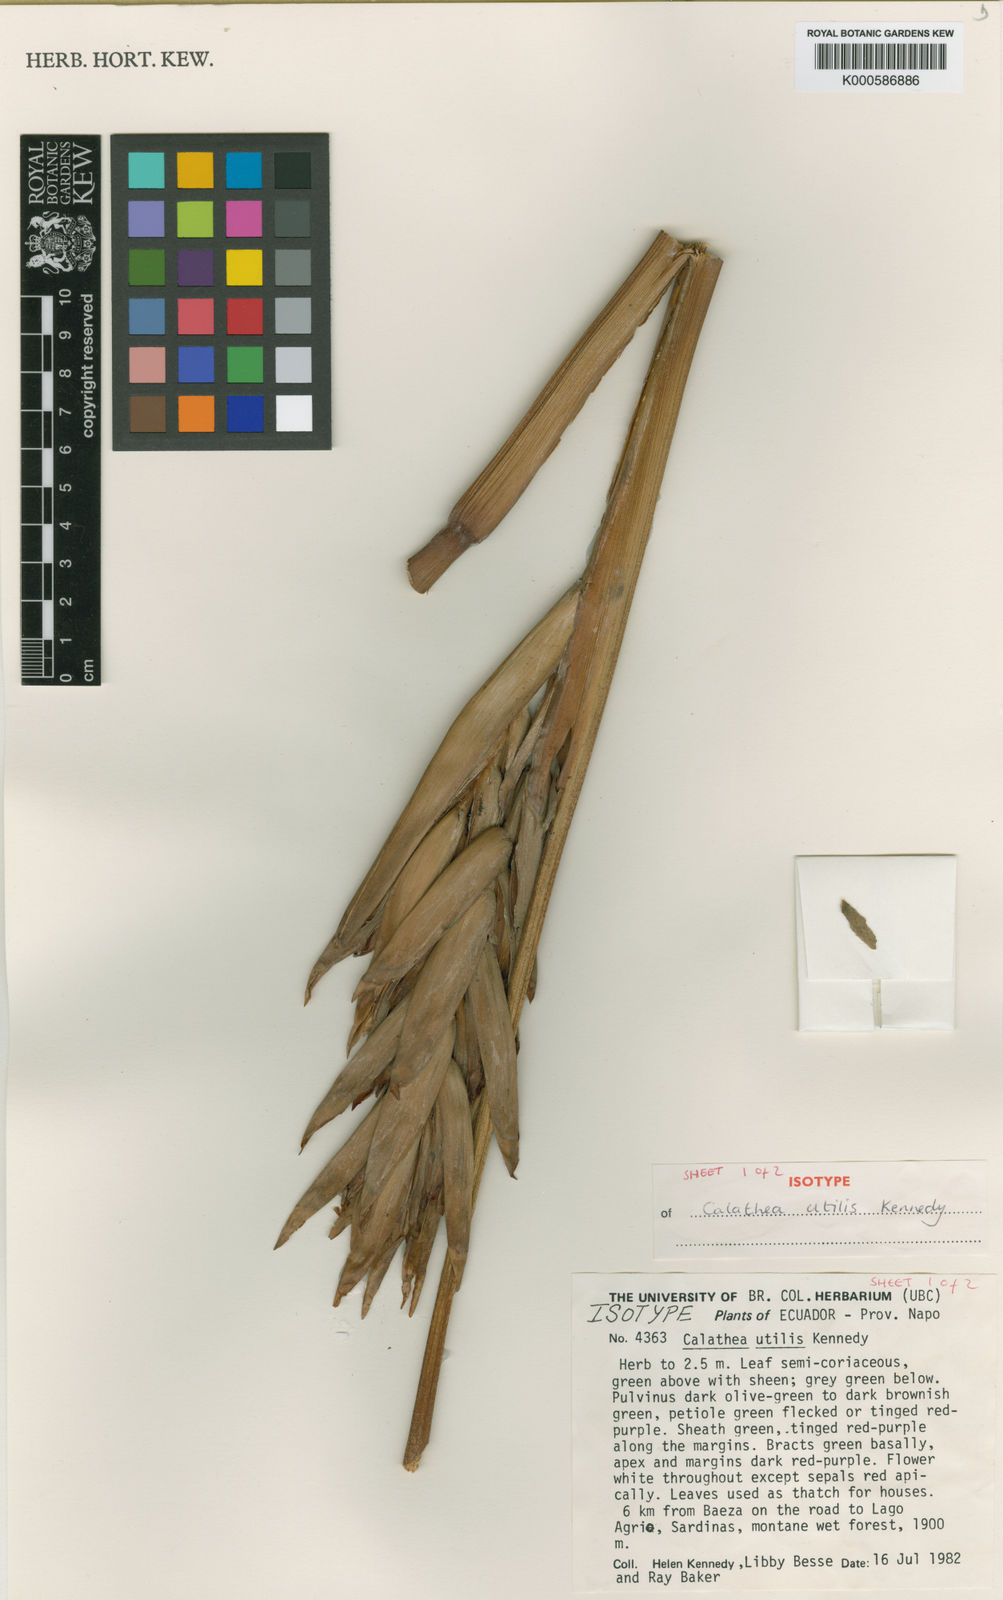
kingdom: Plantae
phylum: Tracheophyta
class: Liliopsida
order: Zingiberales
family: Marantaceae
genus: Calathea
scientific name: Calathea utilis
